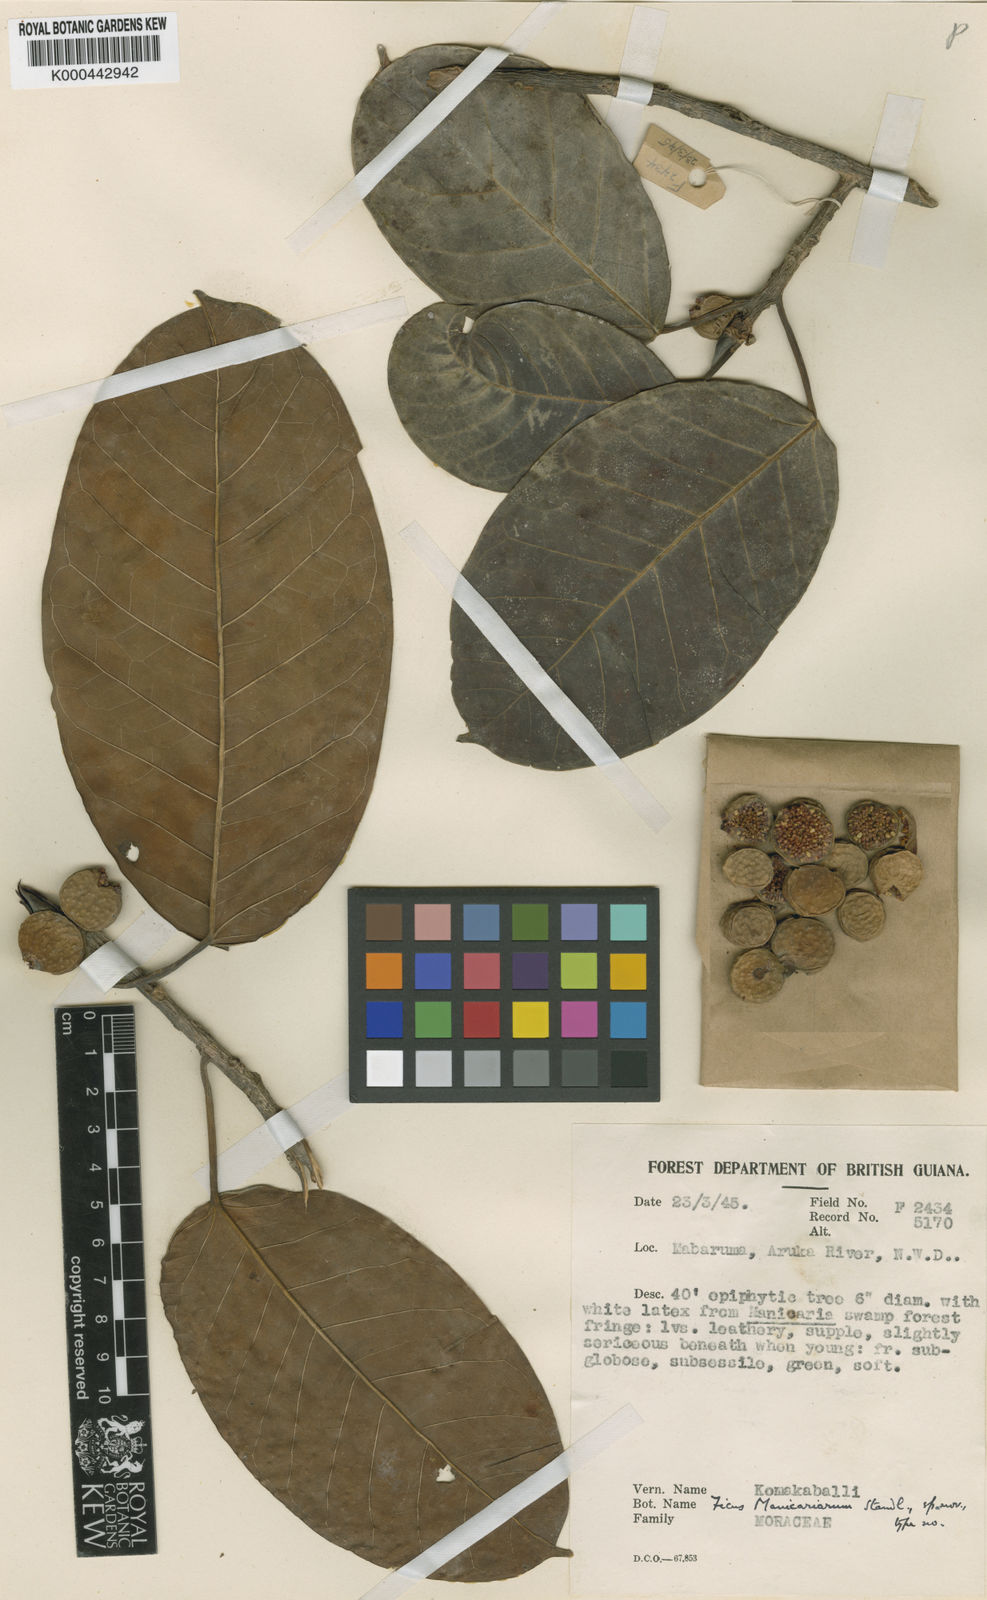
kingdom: Plantae
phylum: Tracheophyta
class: Magnoliopsida
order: Rosales
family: Moraceae
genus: Ficus
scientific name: Ficus broadwayi
